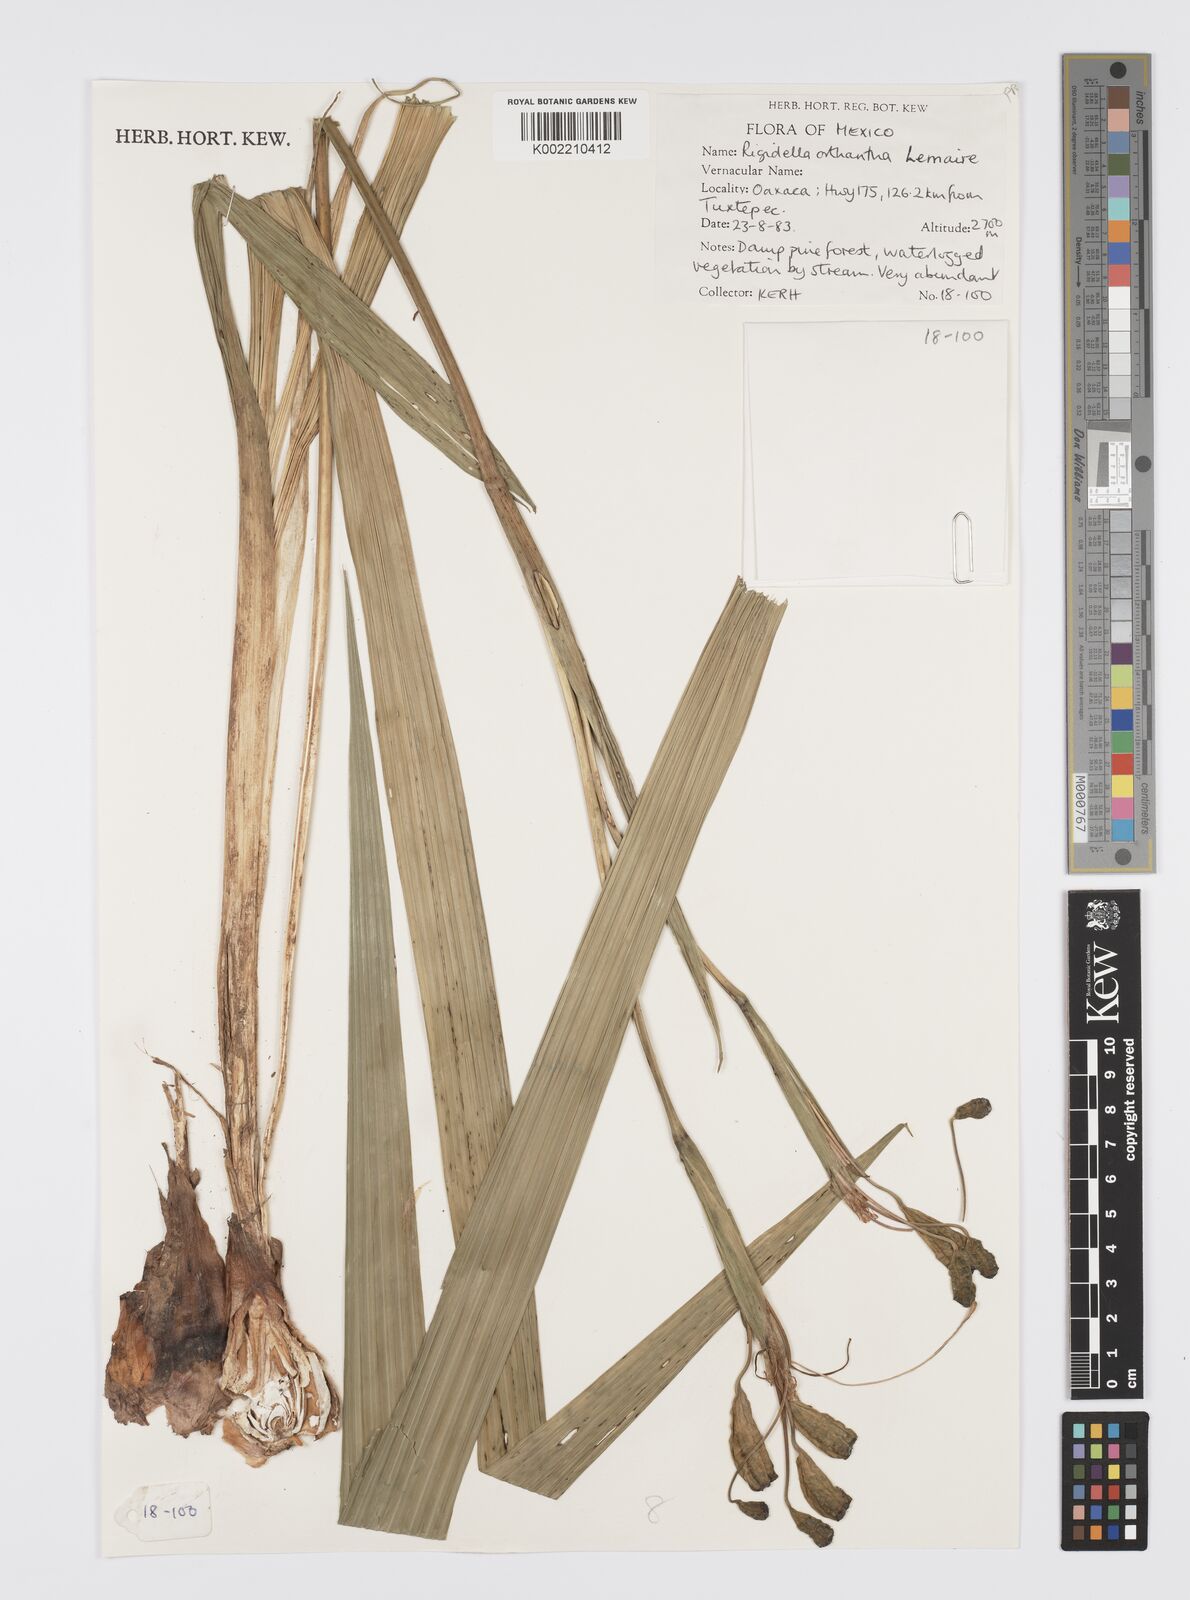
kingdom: Plantae
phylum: Tracheophyta
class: Liliopsida
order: Asparagales
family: Iridaceae
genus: Tigridia
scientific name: Tigridia orthantha
